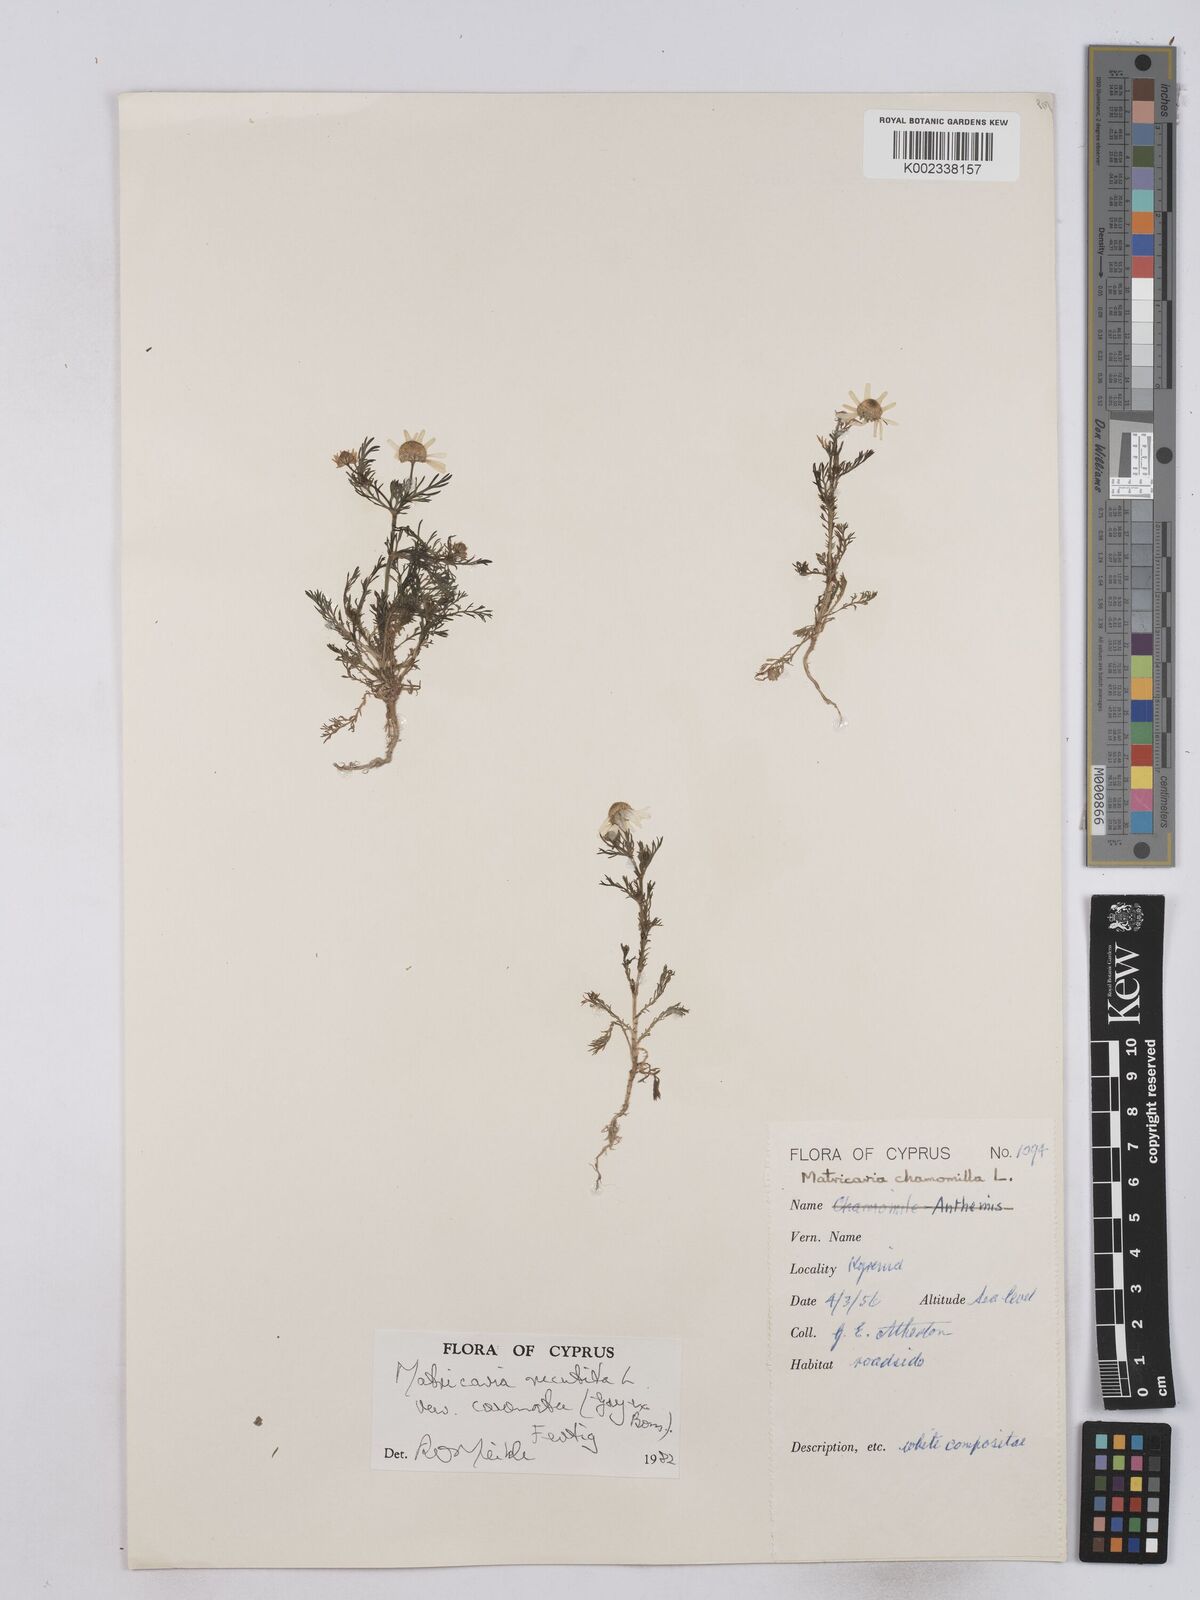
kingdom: Plantae
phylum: Tracheophyta
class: Magnoliopsida
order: Asterales
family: Asteraceae
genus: Matricaria
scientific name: Matricaria chamomilla
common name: Scented mayweed
